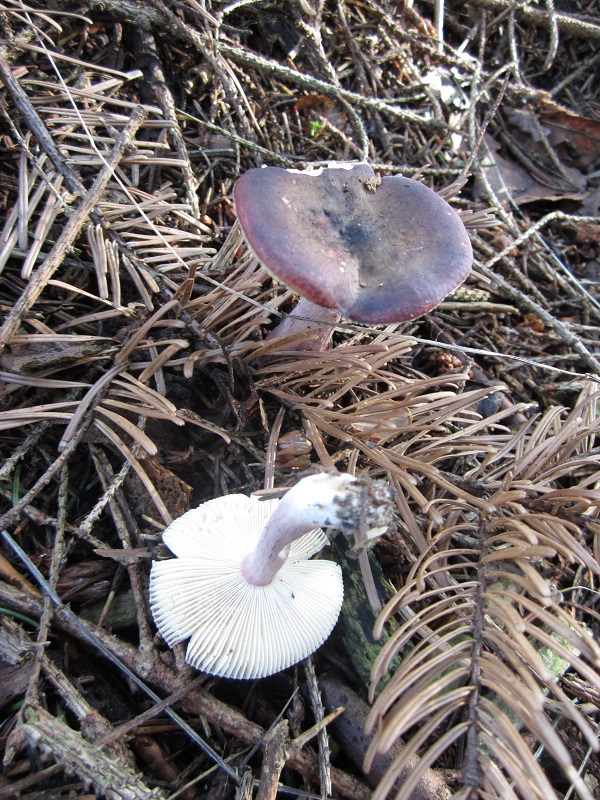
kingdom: Fungi
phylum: Basidiomycota
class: Agaricomycetes
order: Russulales
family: Russulaceae
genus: Russula
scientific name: Russula queletii
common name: Quélets skørhat
